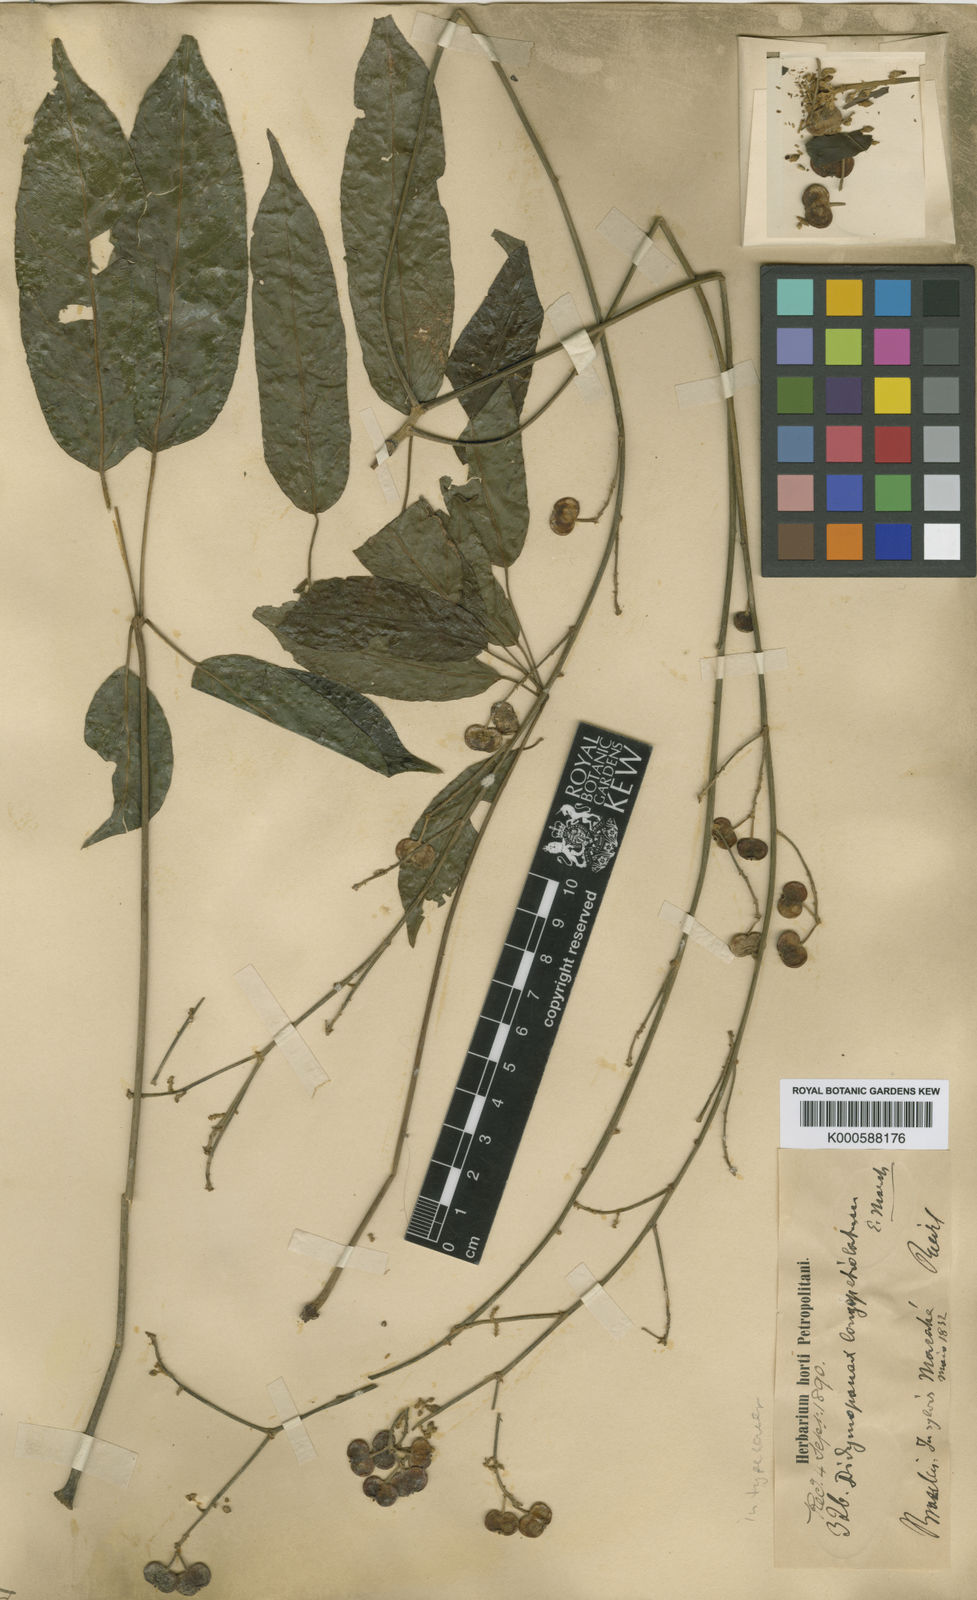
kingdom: Plantae
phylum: Tracheophyta
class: Magnoliopsida
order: Apiales
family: Araliaceae
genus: Schefflera
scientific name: Schefflera
